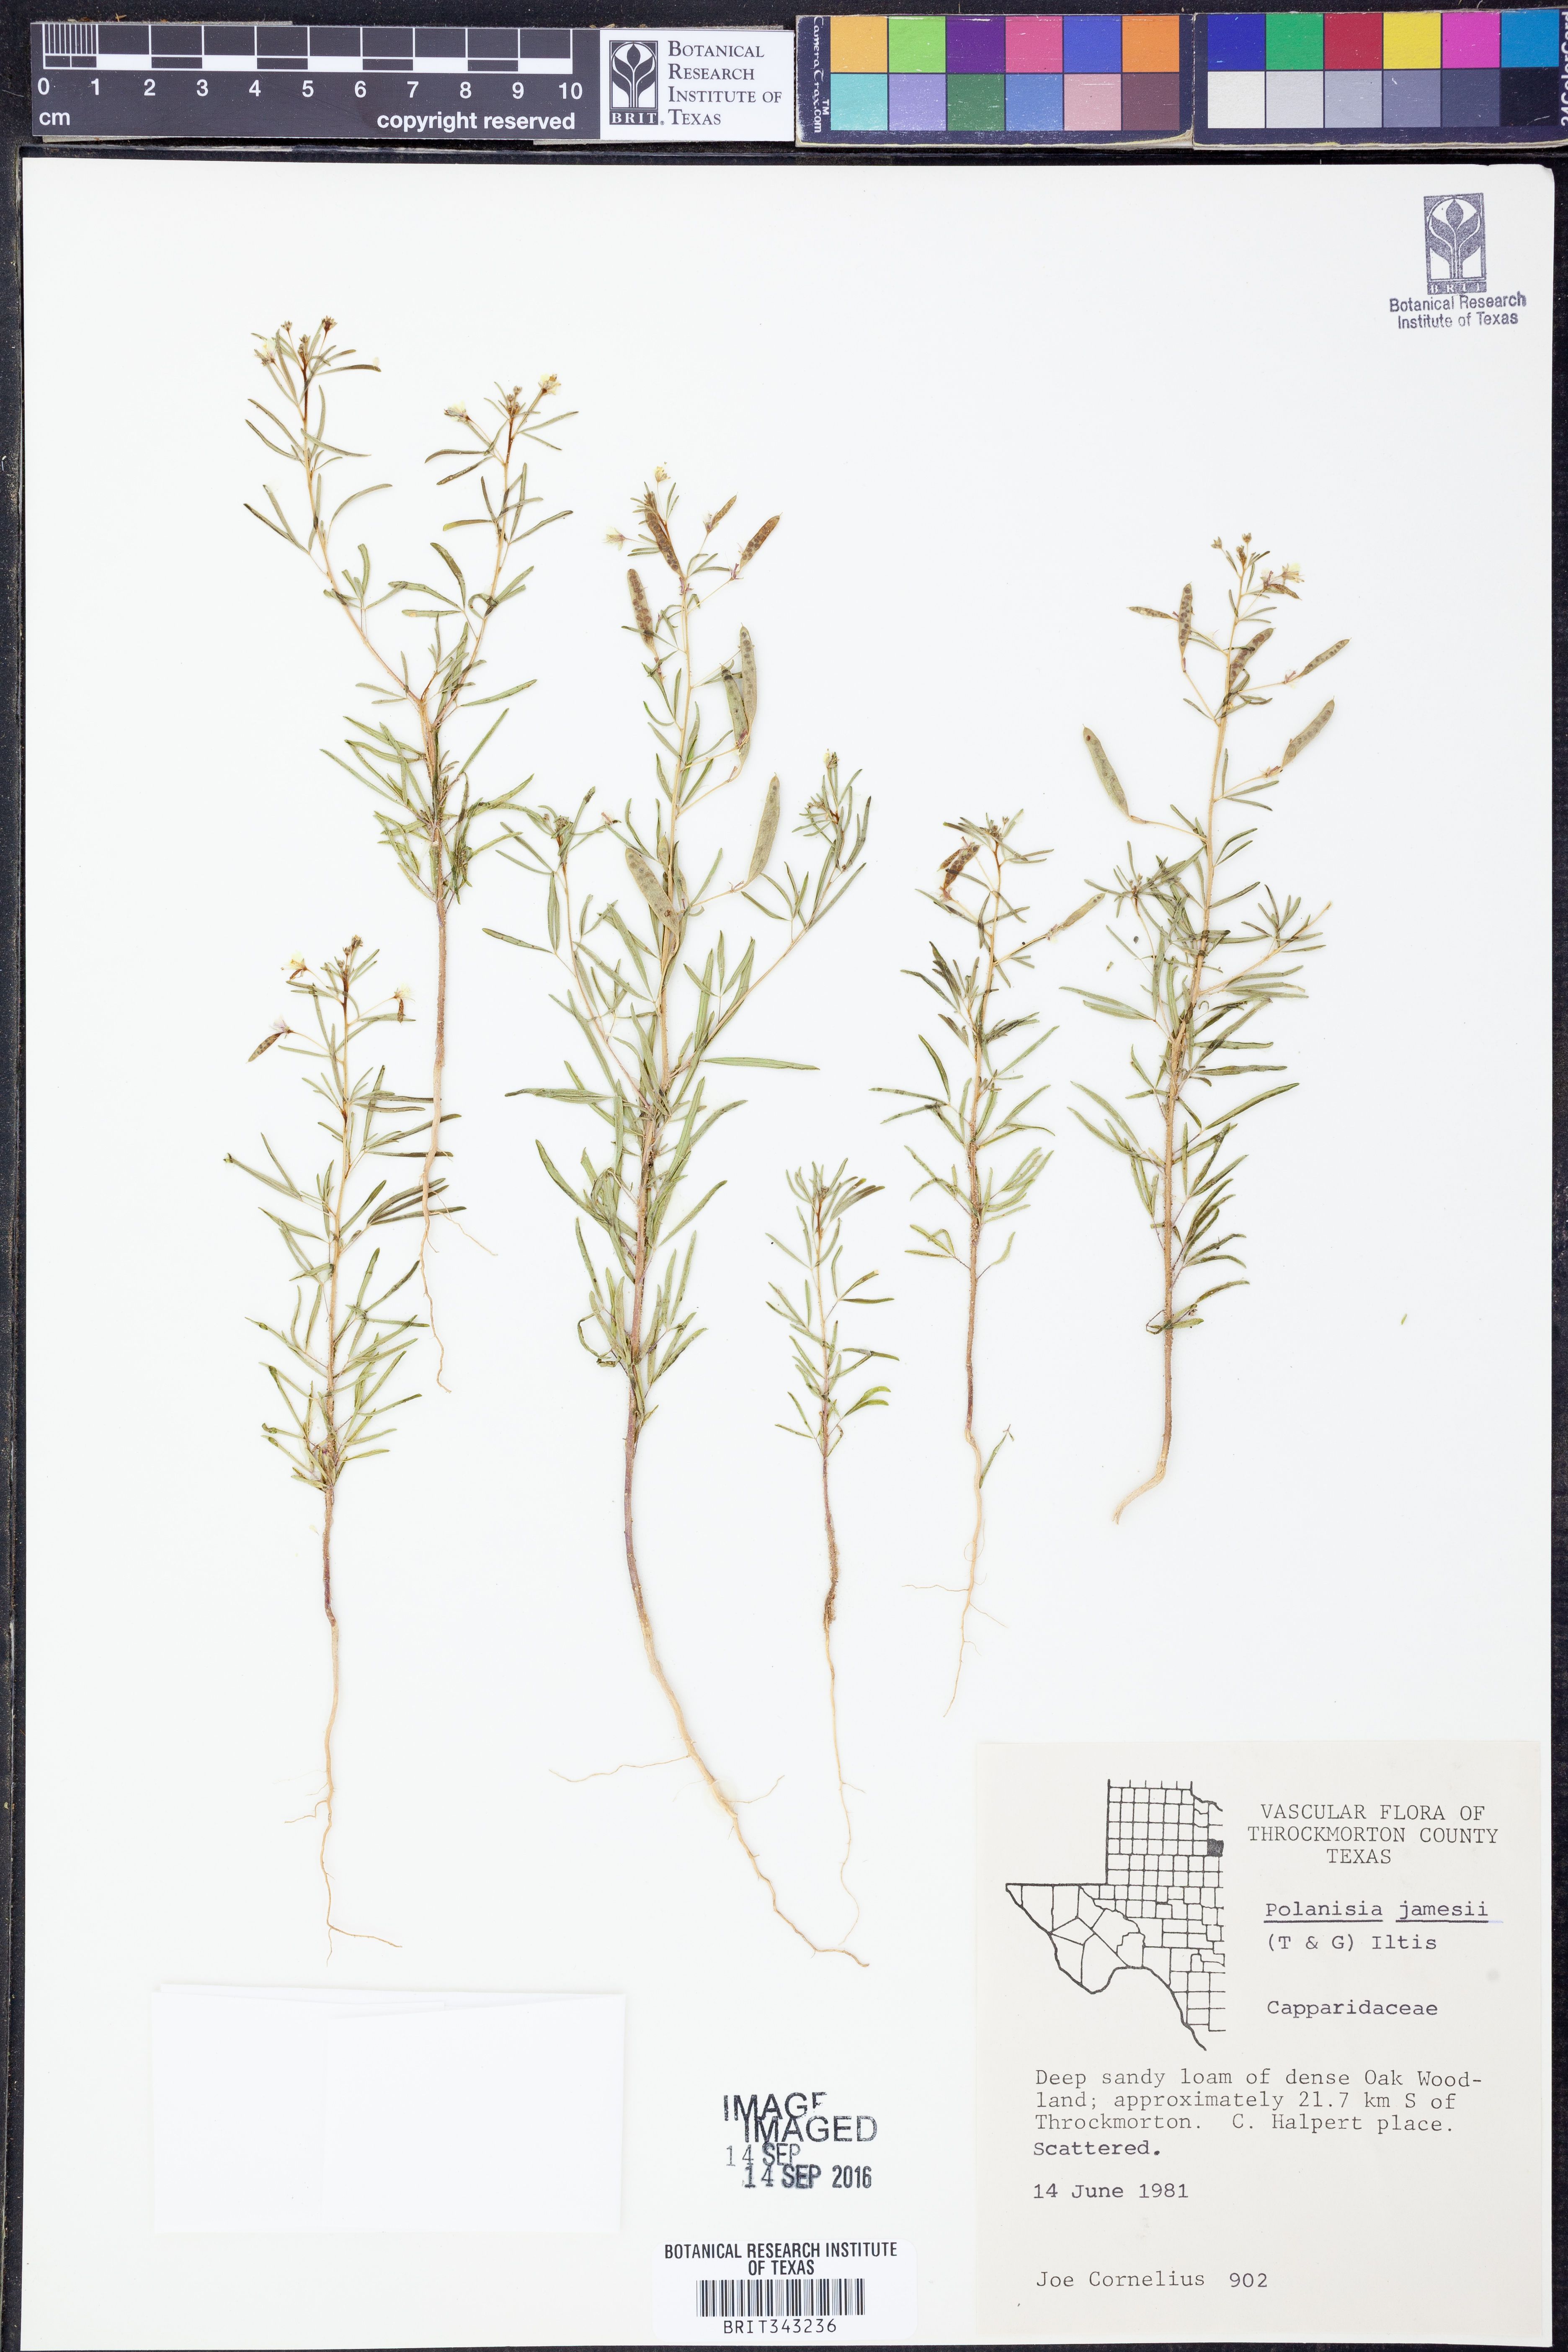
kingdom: Plantae
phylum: Tracheophyta
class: Magnoliopsida
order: Brassicales
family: Cleomaceae
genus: Polanisia
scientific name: Polanisia jamesii
